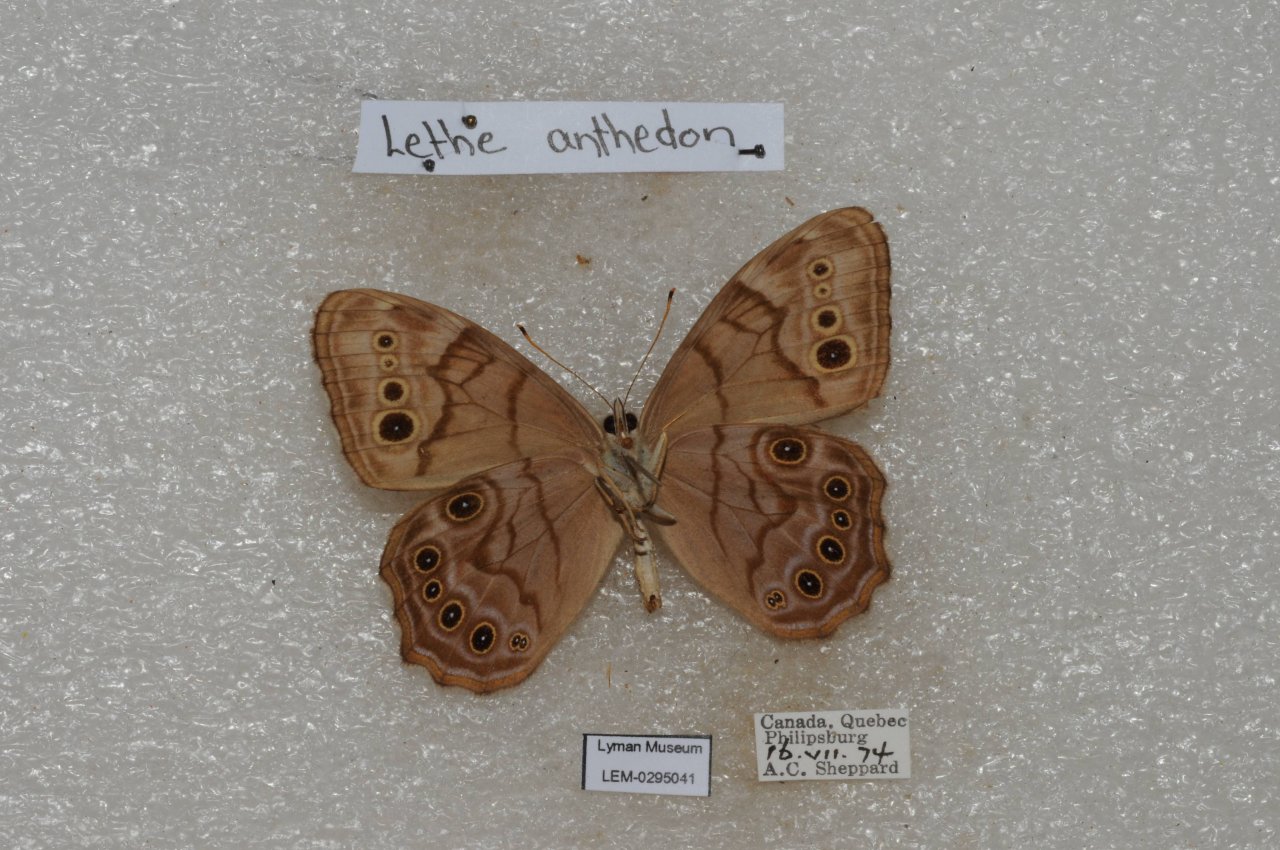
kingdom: Animalia
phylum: Arthropoda
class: Insecta
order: Lepidoptera
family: Nymphalidae
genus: Lethe
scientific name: Lethe anthedon
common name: Northern Pearly-Eye
